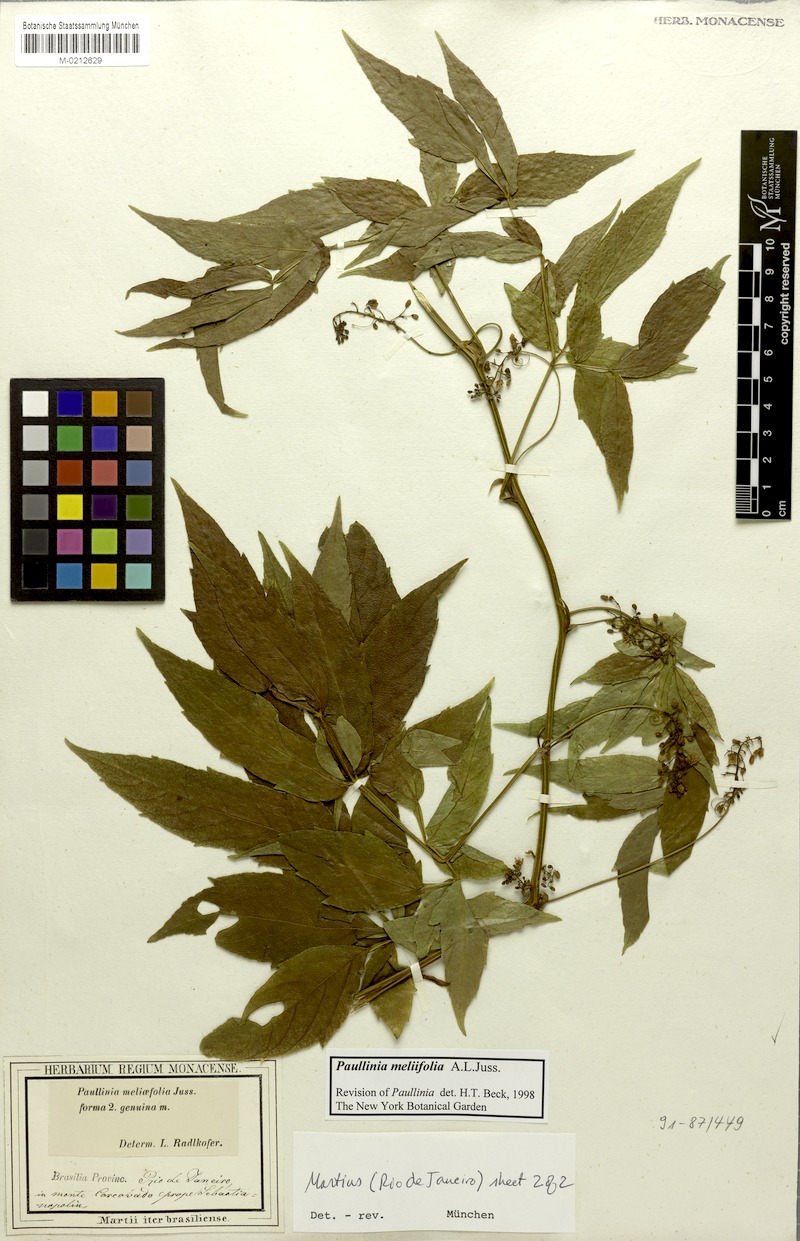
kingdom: Plantae
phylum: Tracheophyta
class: Magnoliopsida
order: Sapindales
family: Sapindaceae
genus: Paullinia
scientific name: Paullinia meliifolia
